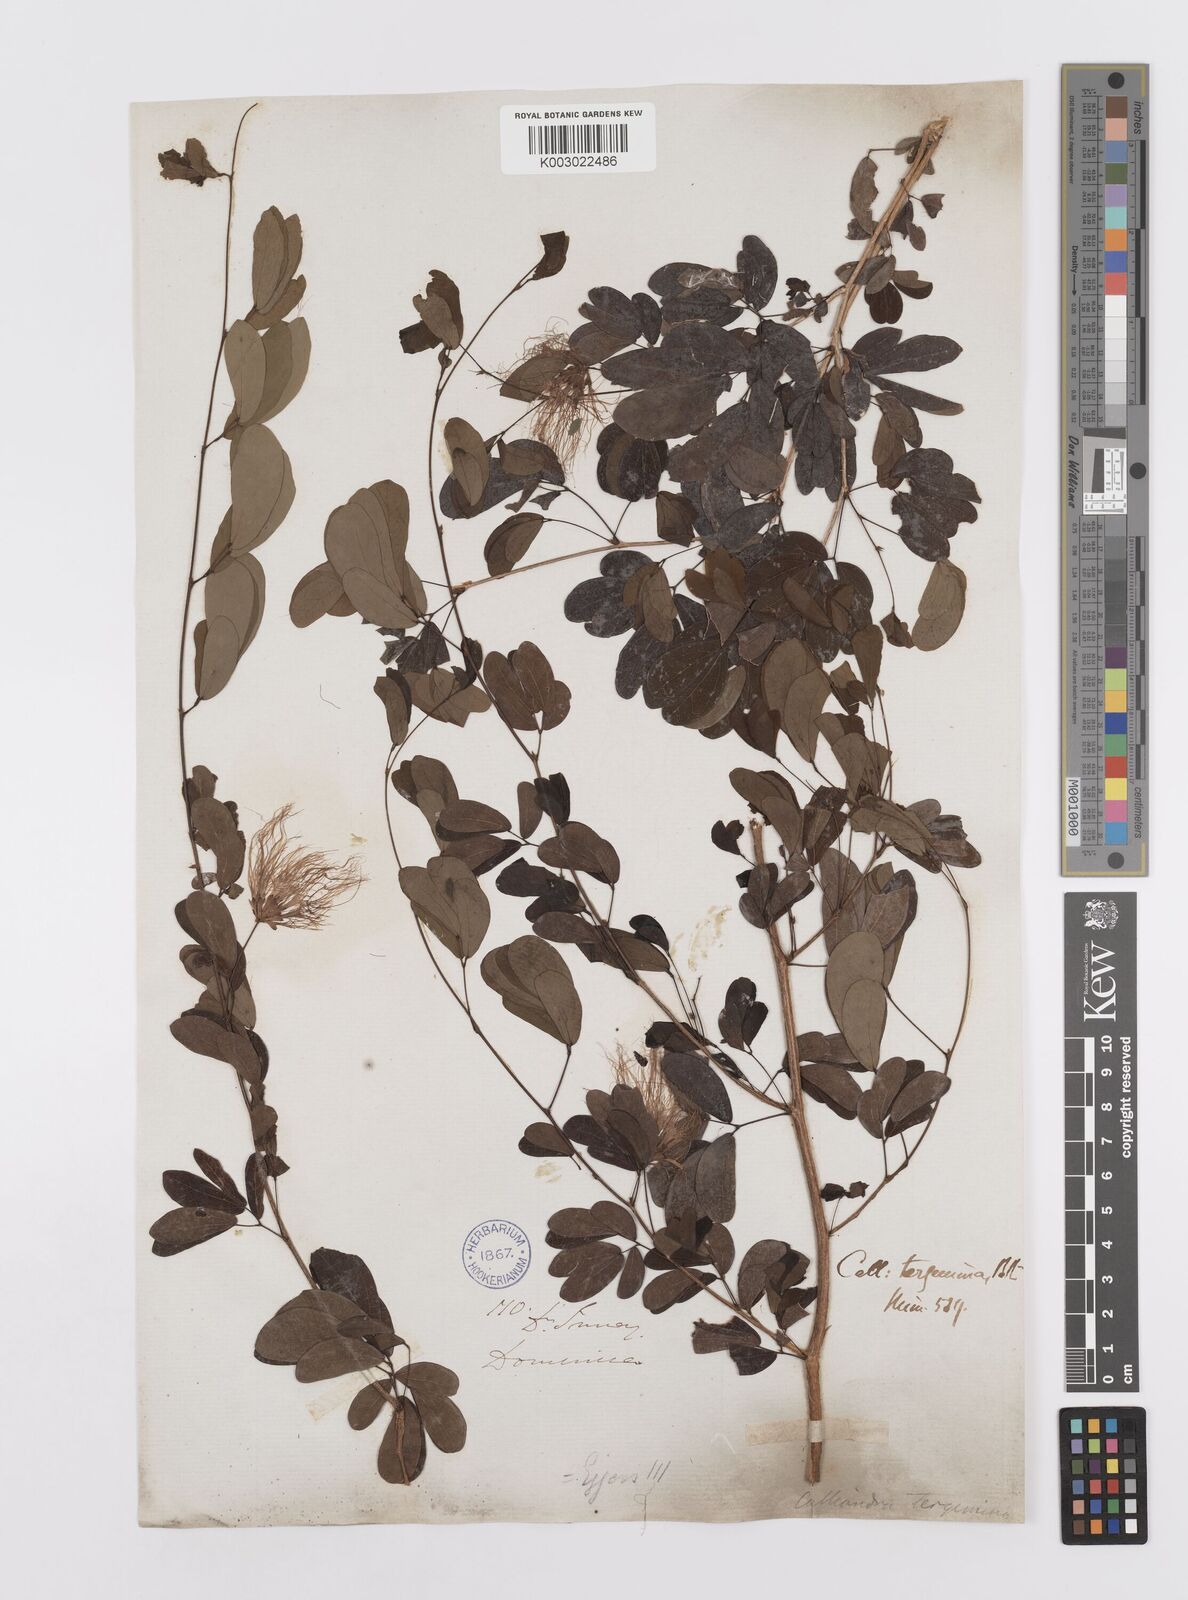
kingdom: Plantae
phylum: Tracheophyta
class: Magnoliopsida
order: Fabales
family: Fabaceae
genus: Calliandra
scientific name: Calliandra tergemina
